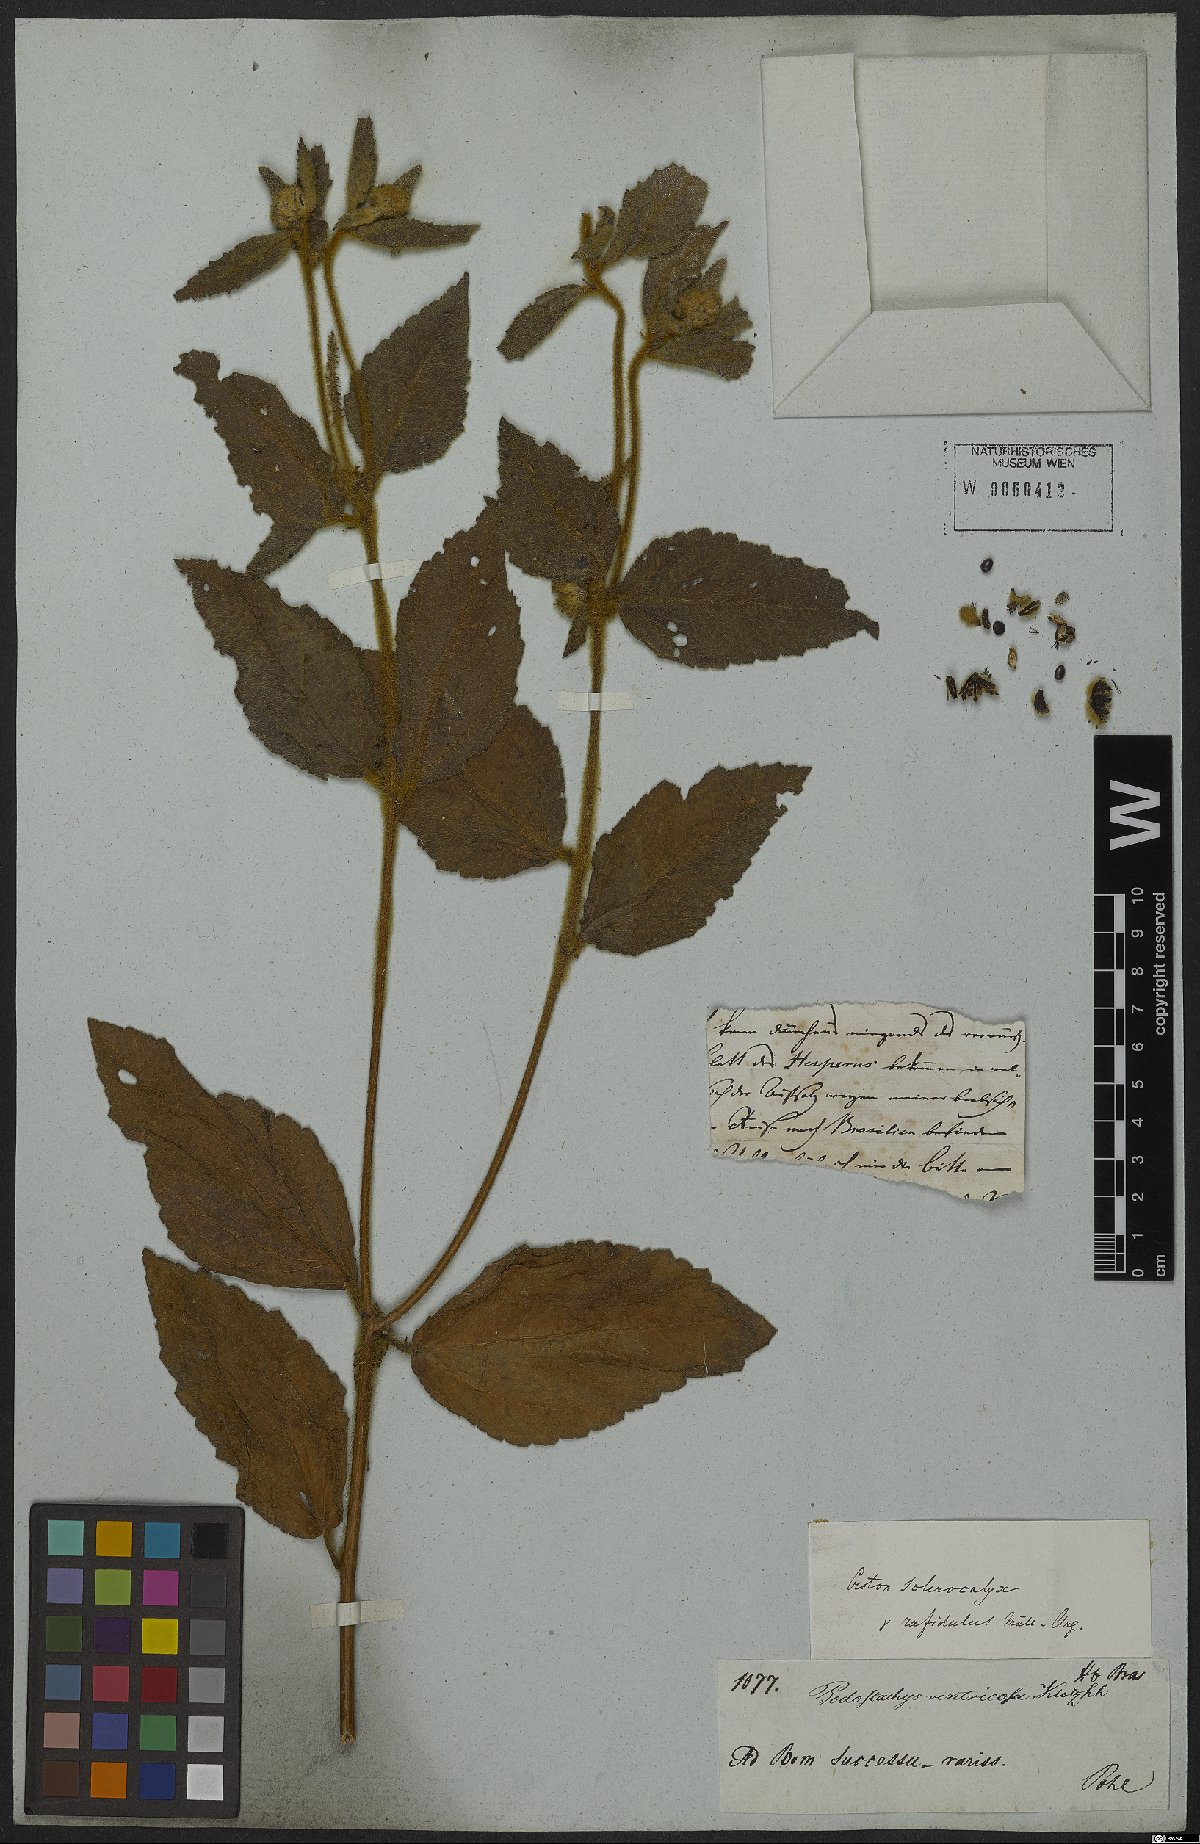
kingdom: Plantae
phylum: Tracheophyta
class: Magnoliopsida
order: Malpighiales
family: Euphorbiaceae
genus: Croton
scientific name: Croton sclerocalyx
